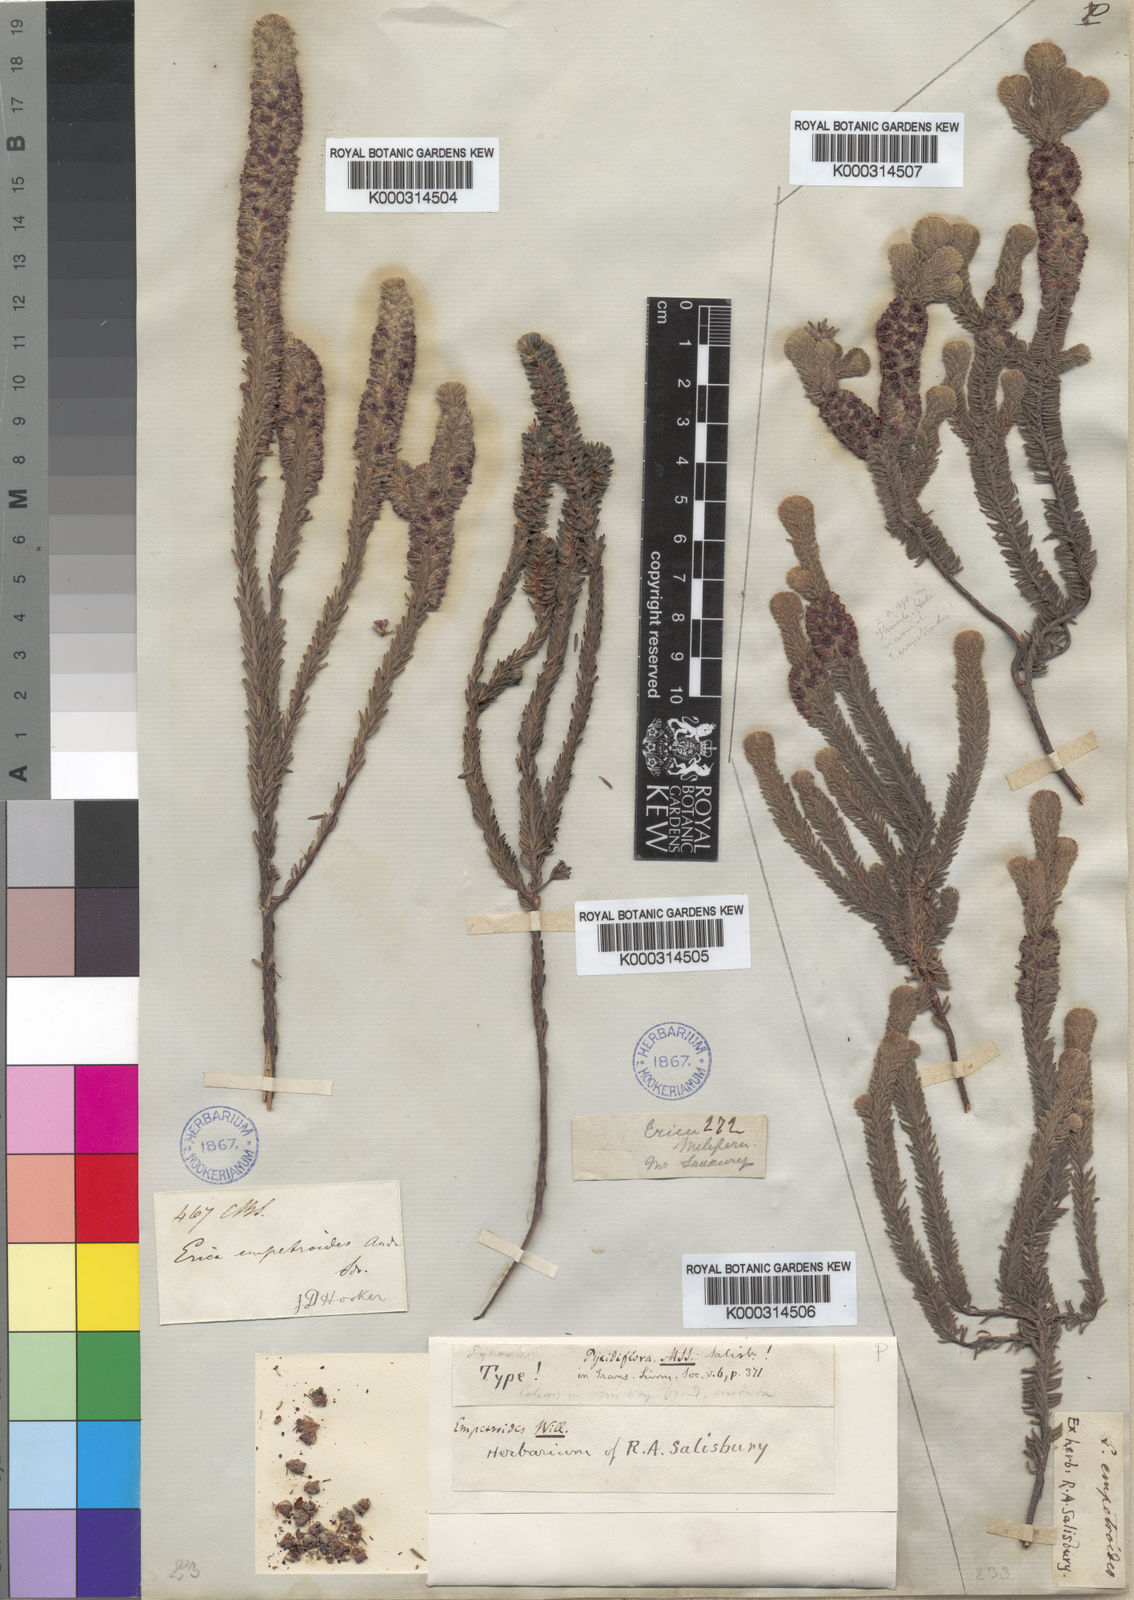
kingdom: Plantae
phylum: Tracheophyta
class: Magnoliopsida
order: Ericales
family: Ericaceae
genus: Erica
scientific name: Erica pyxidiflora
